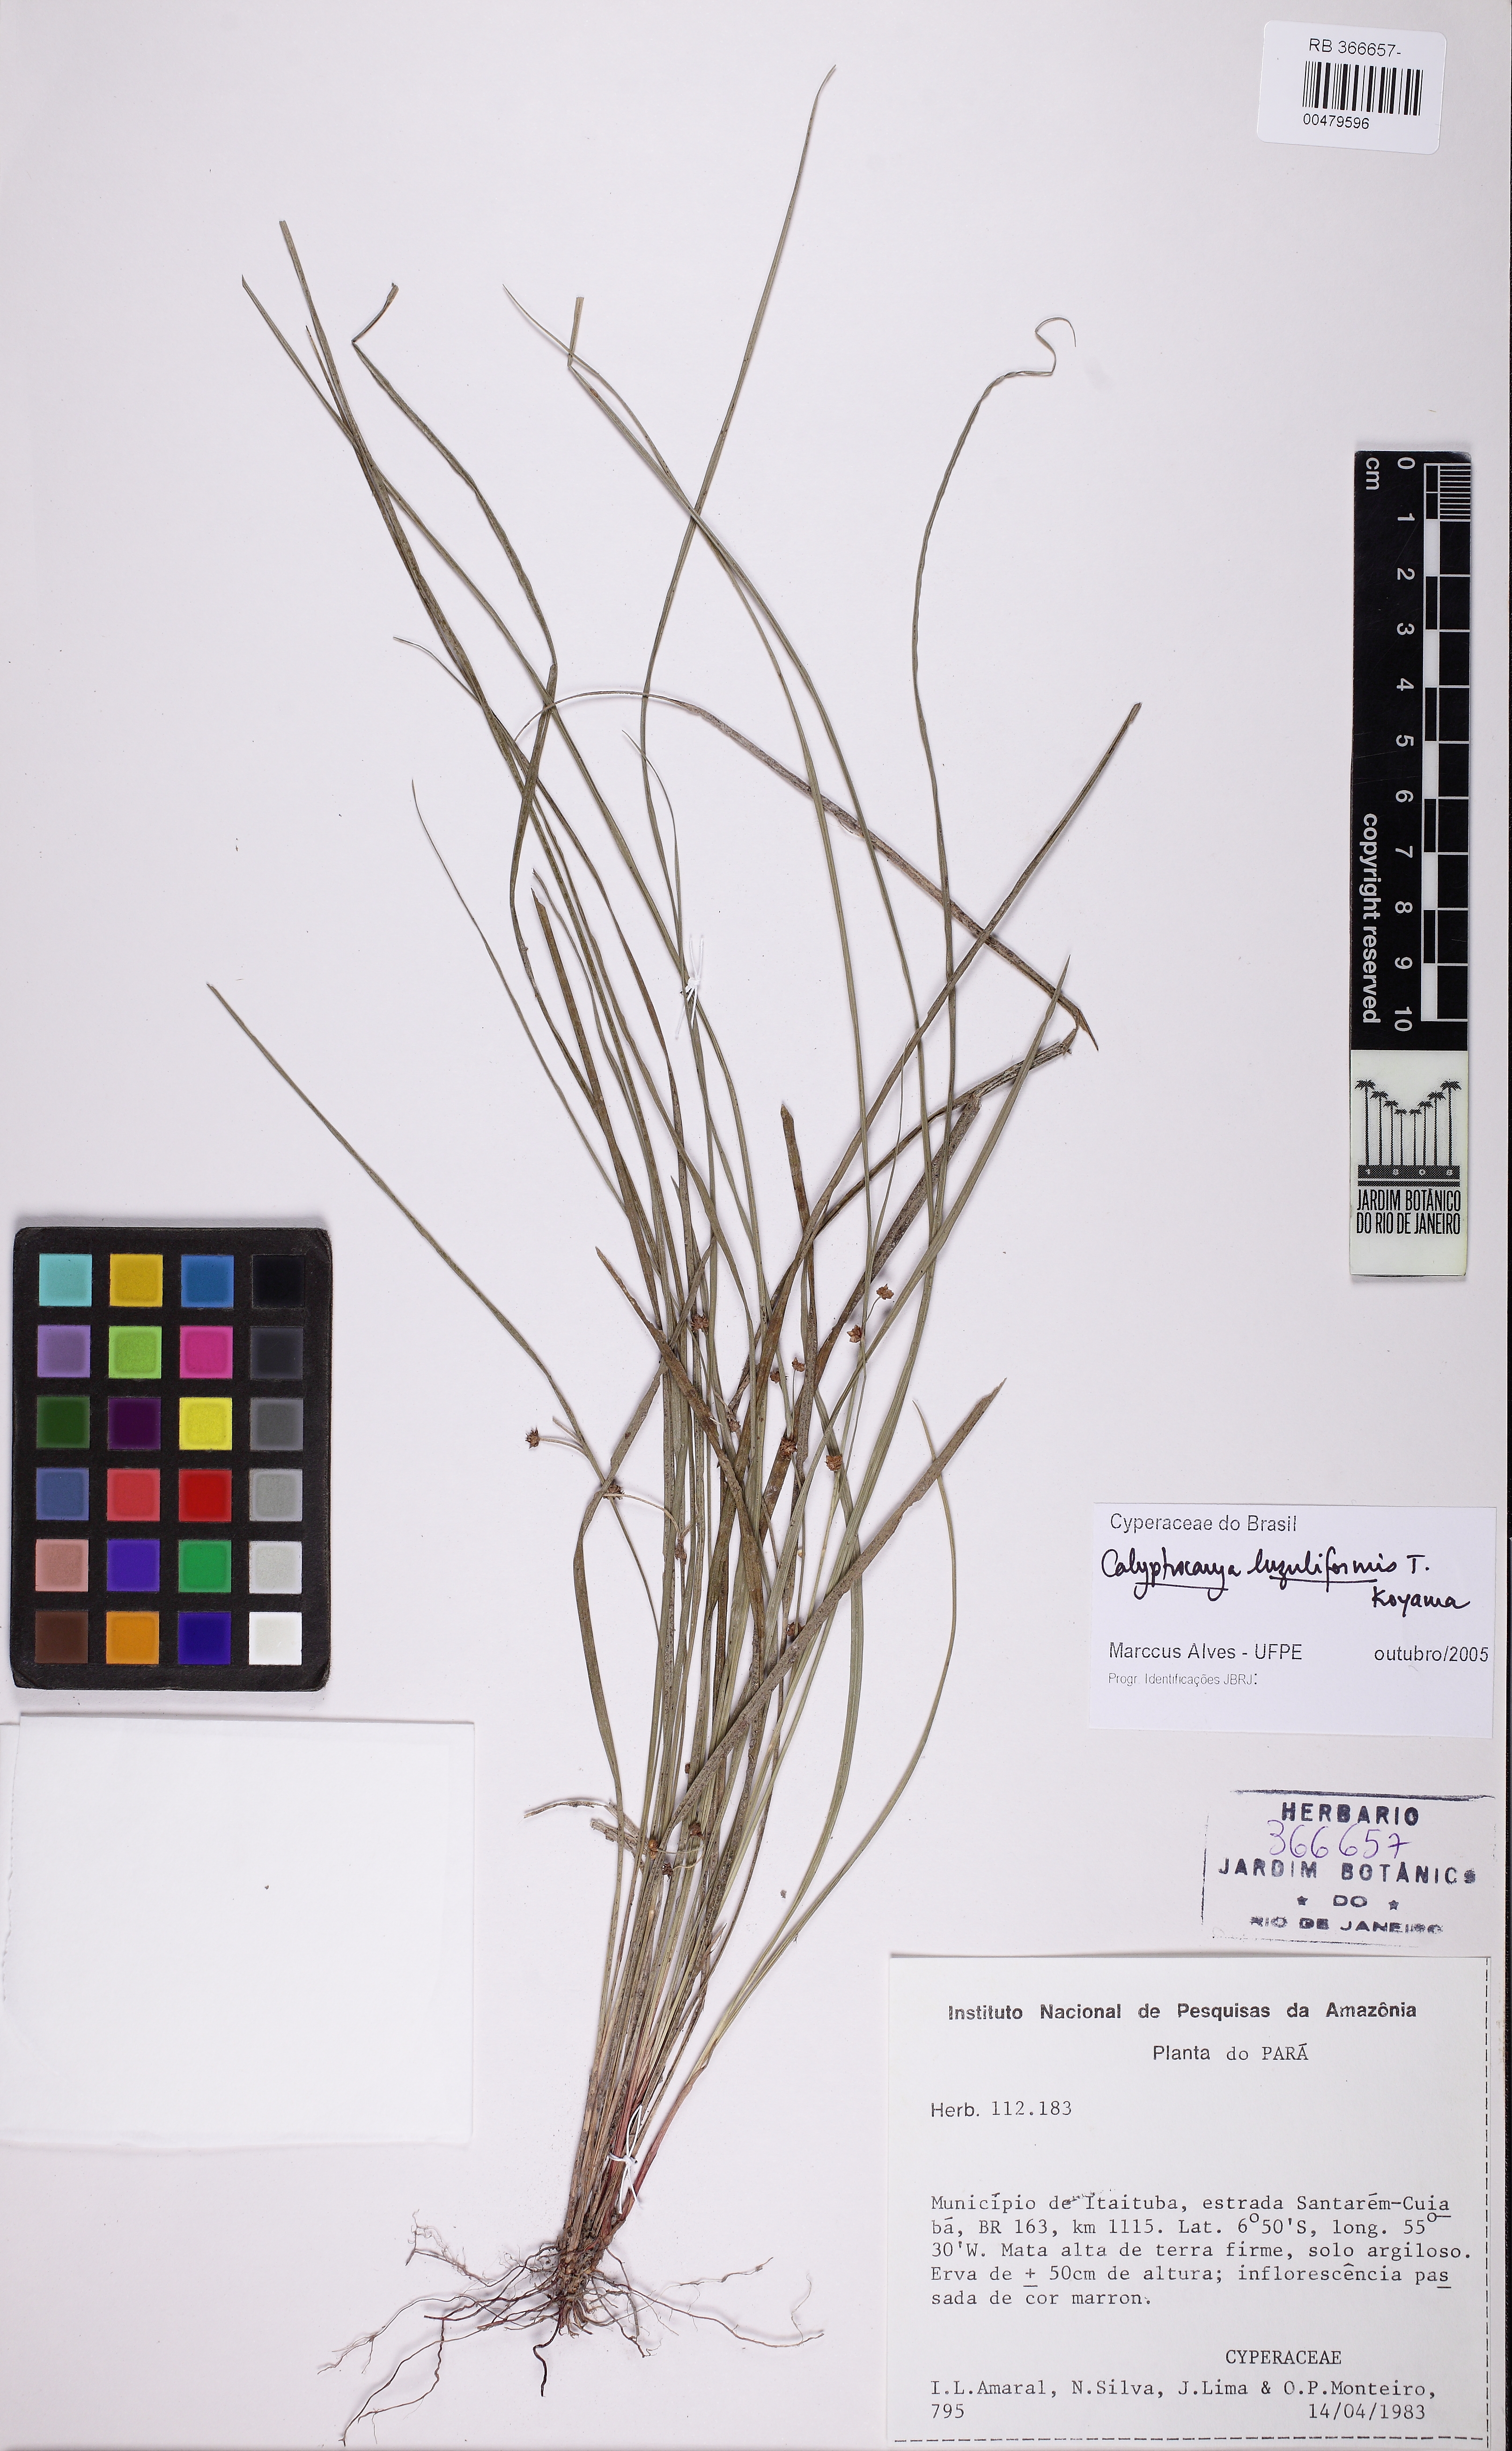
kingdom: Plantae
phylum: Tracheophyta
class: Liliopsida
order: Poales
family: Cyperaceae
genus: Calyptrocarya
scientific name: Calyptrocarya luzuliformis
